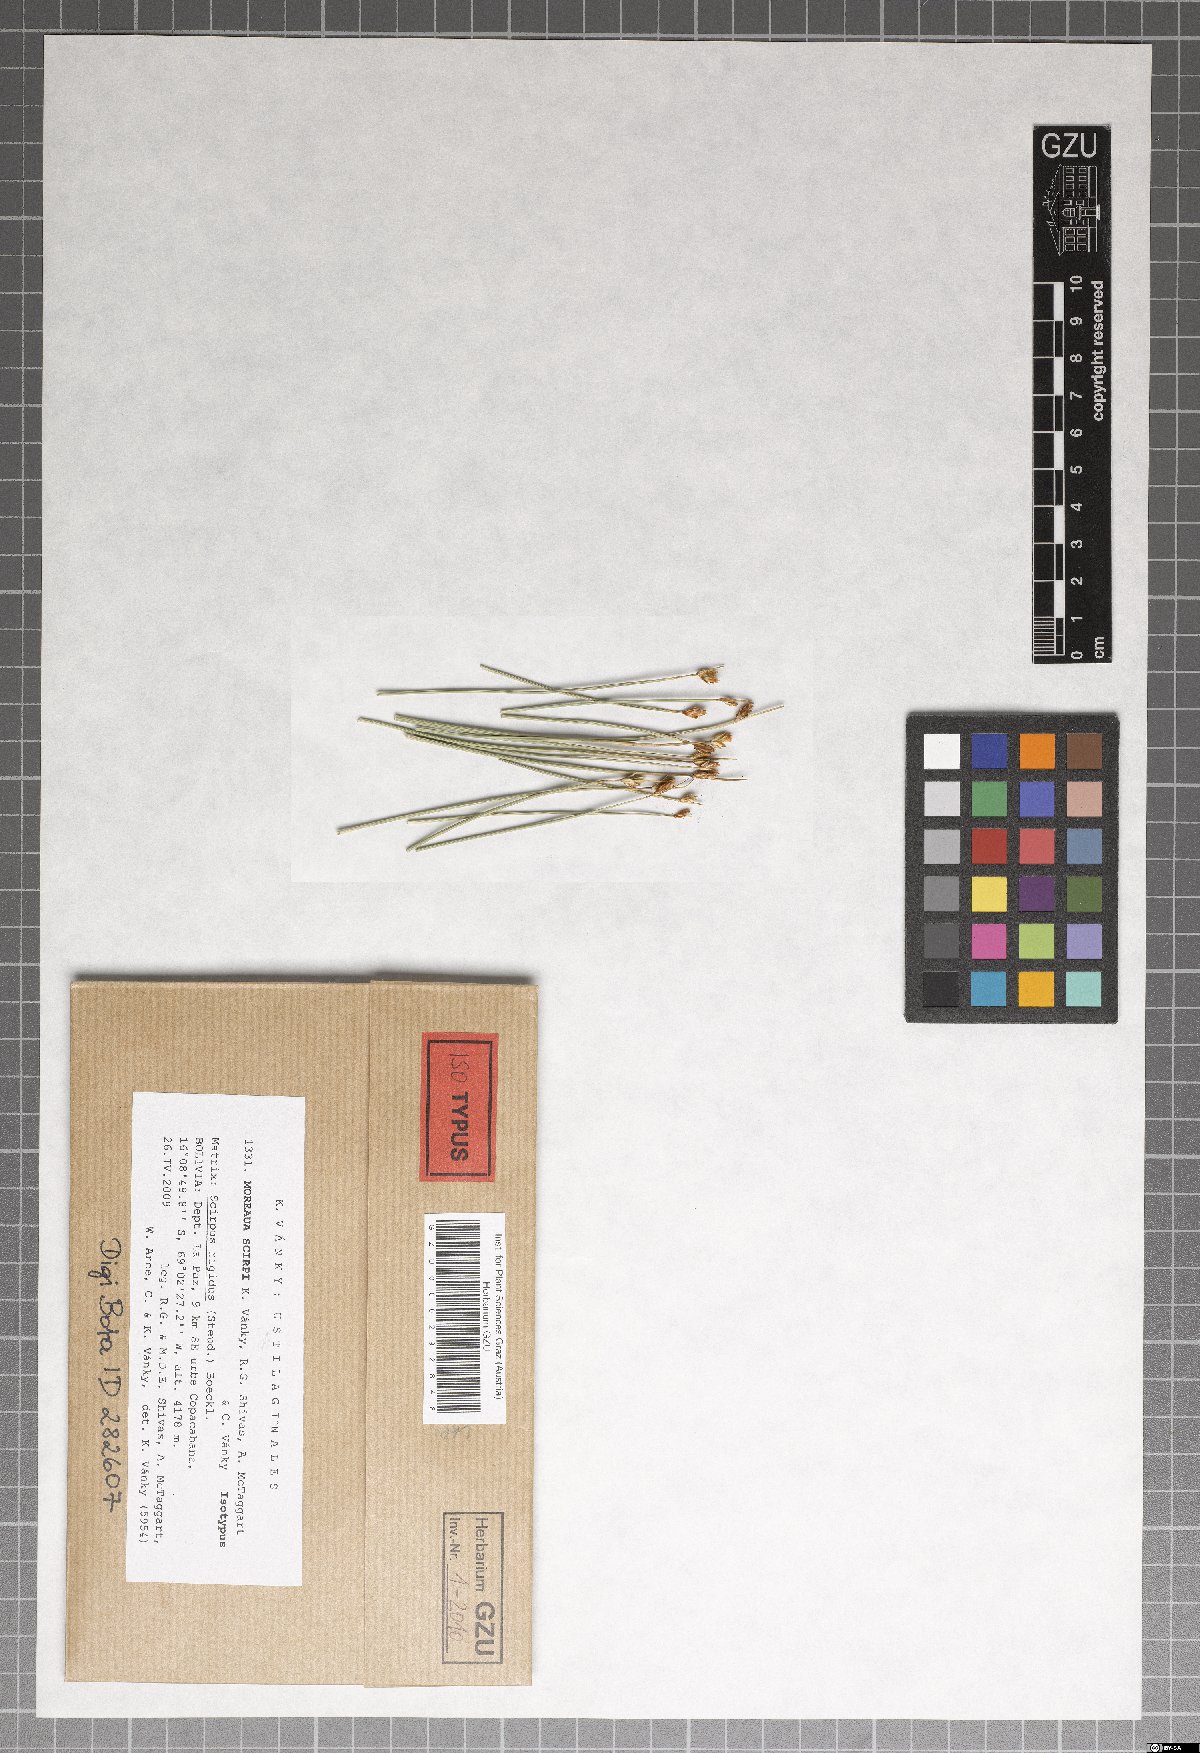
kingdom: Fungi
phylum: Basidiomycota
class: Ustilaginomycetes
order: Ustilaginales
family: Anthracoideaceae
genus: Moreaua
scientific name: Moreaua scirpi
